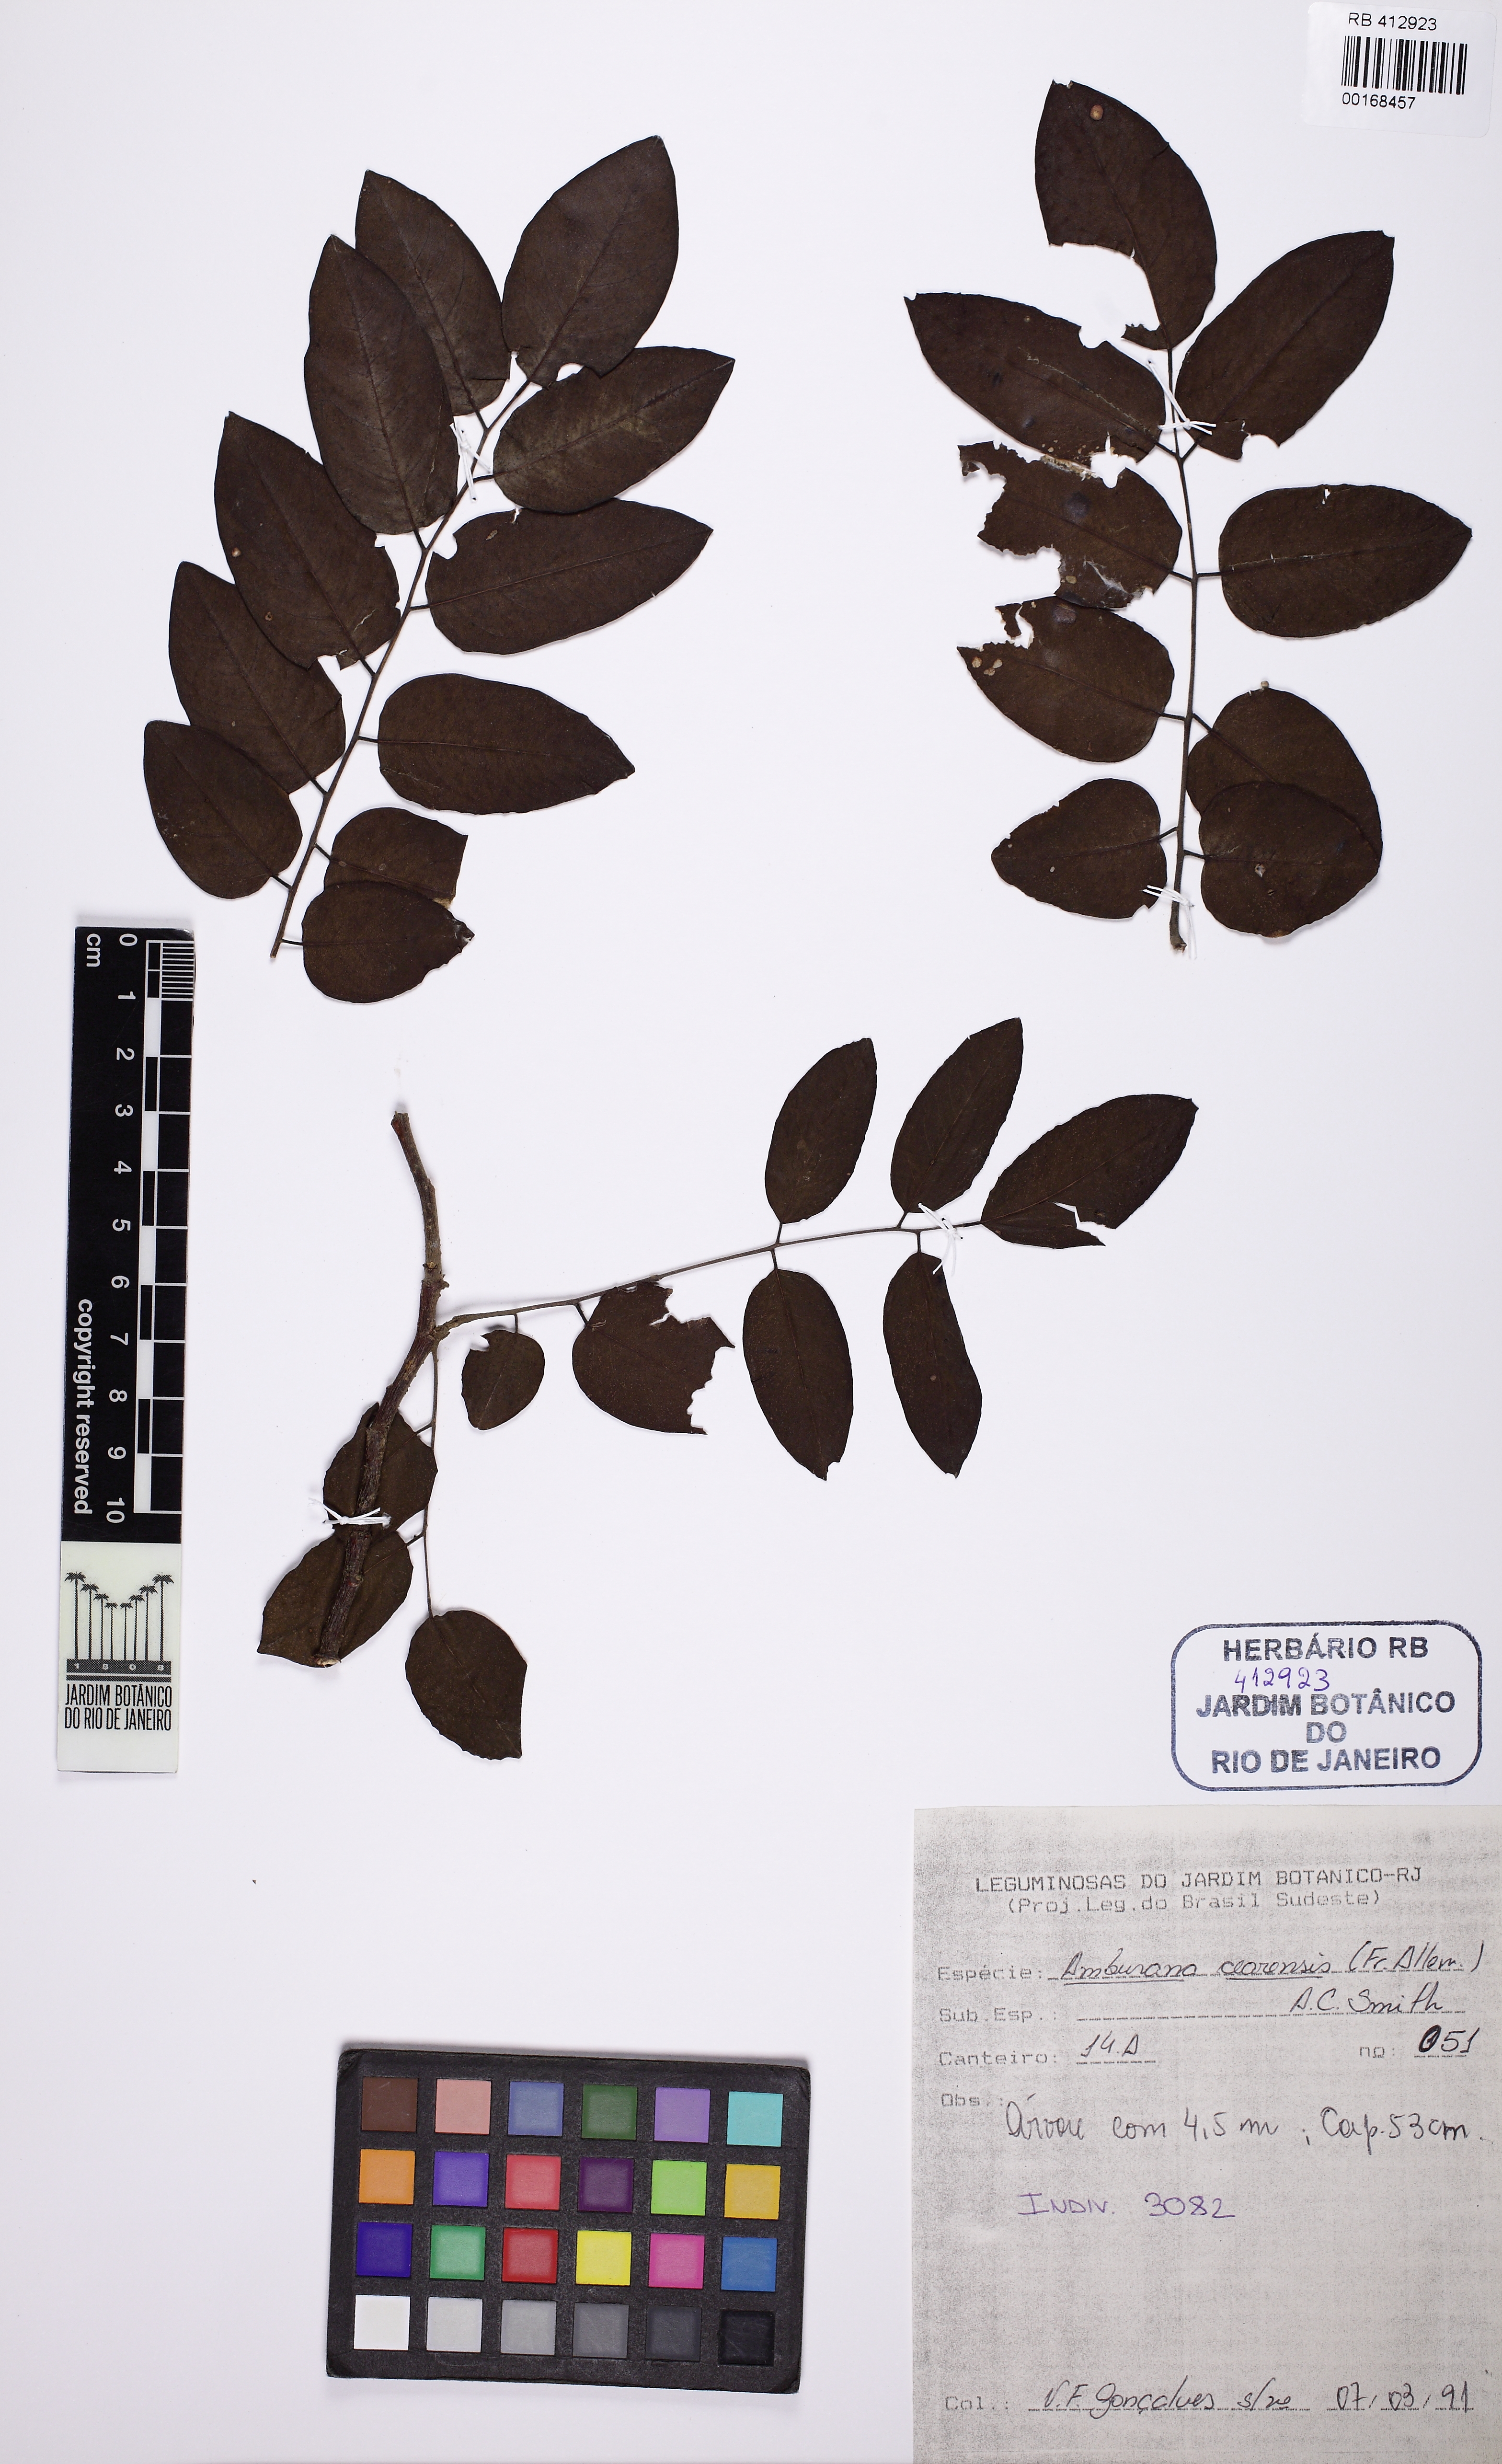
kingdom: Plantae
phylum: Tracheophyta
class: Magnoliopsida
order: Fabales
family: Fabaceae
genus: Amburana
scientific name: Amburana cearensis
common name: Cerejeira
